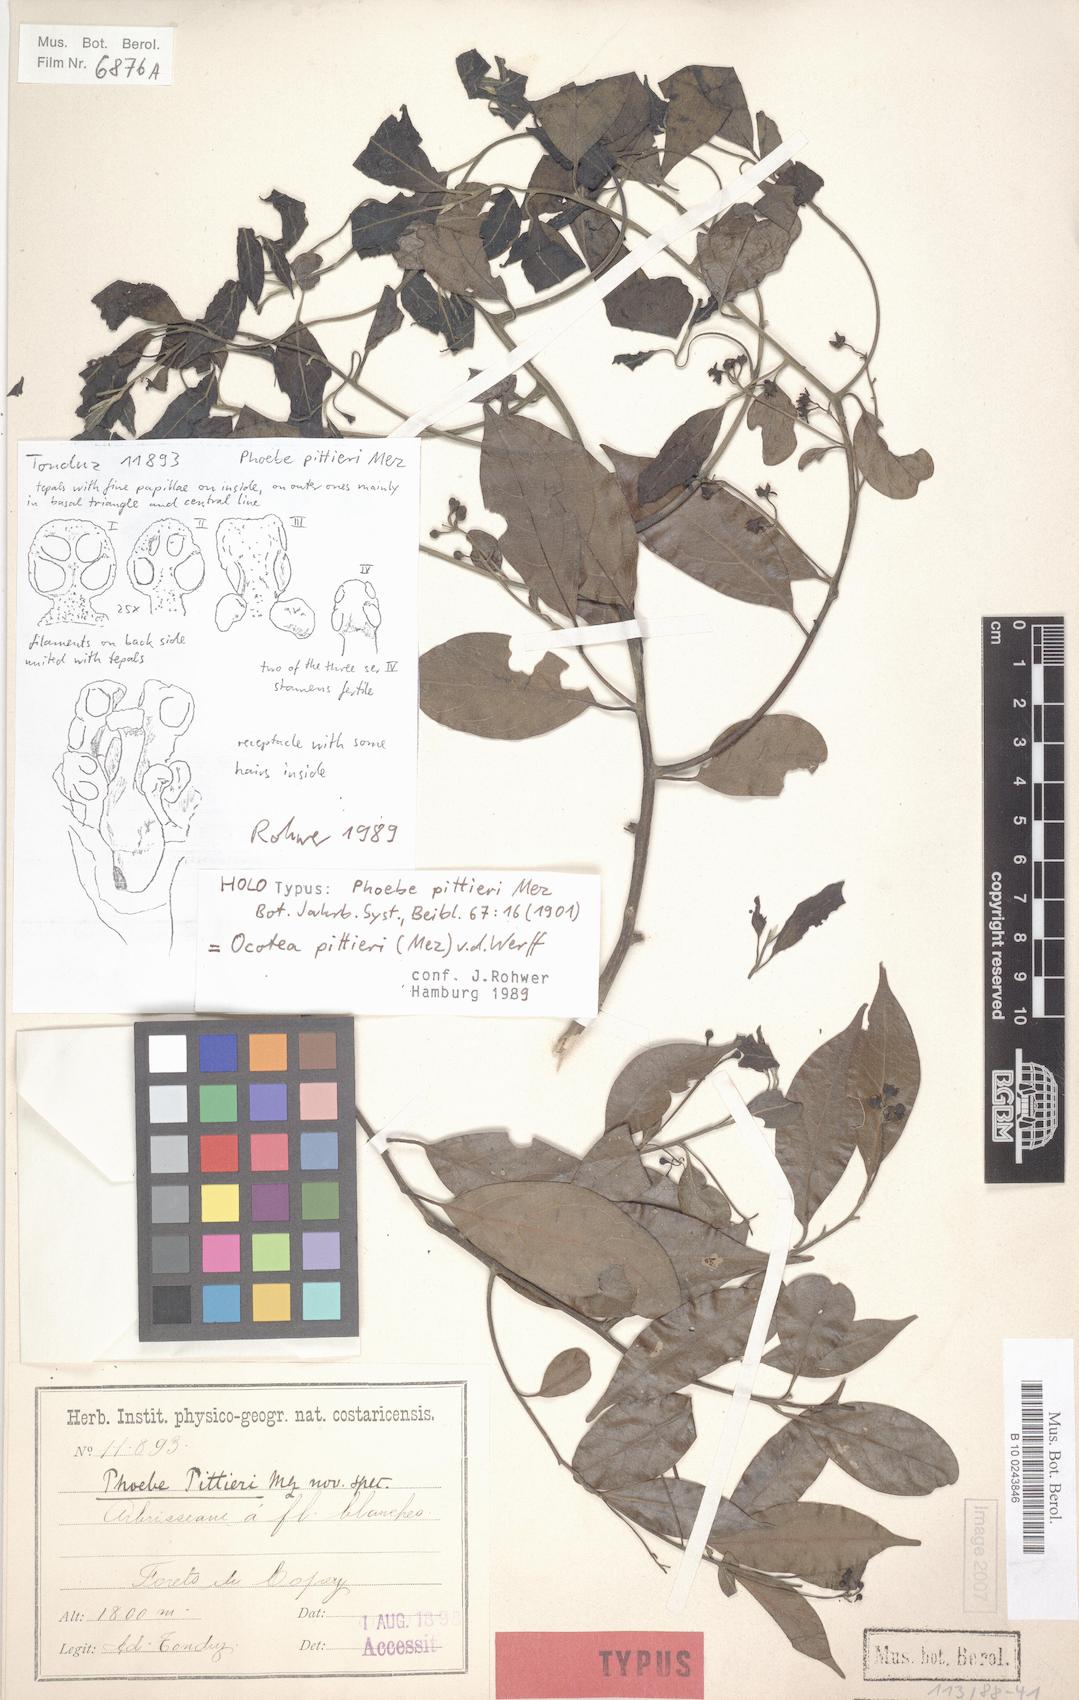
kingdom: Plantae
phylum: Tracheophyta
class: Magnoliopsida
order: Laurales
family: Lauraceae
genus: Ocotea
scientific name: Ocotea pittieri
